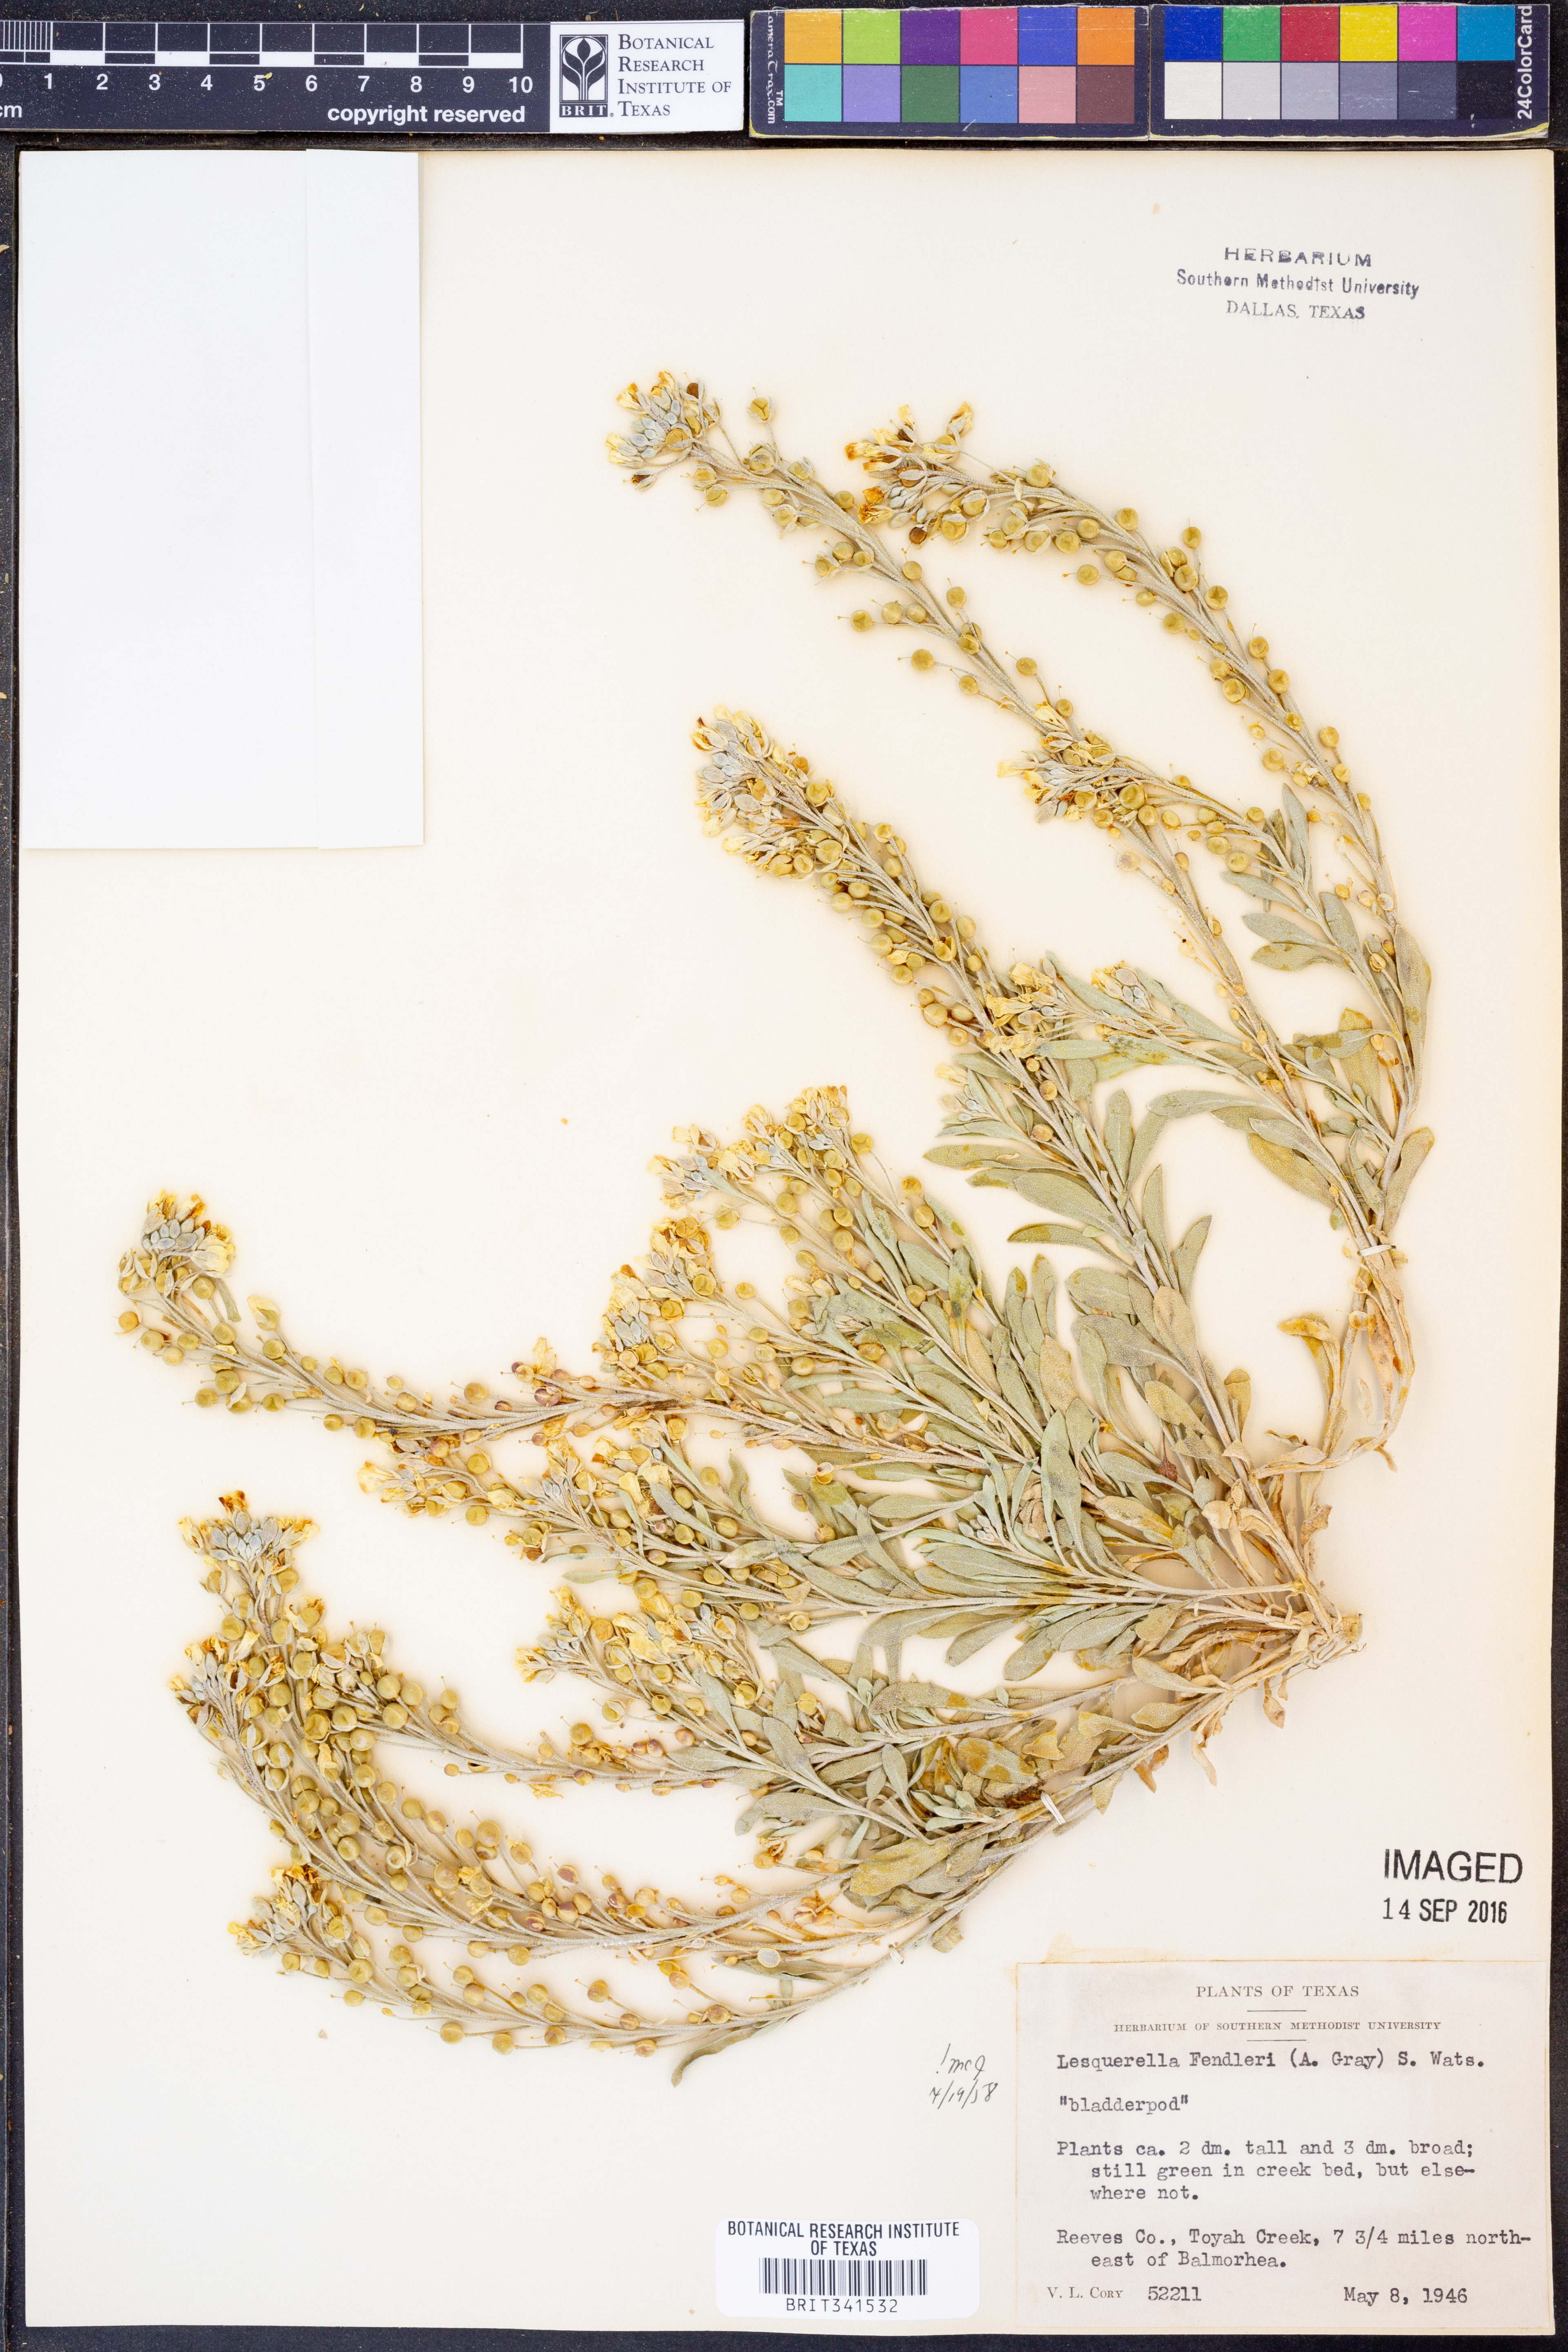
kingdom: Plantae
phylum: Tracheophyta
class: Magnoliopsida
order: Brassicales
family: Brassicaceae
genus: Physaria
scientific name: Physaria fendleri
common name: Fendler's bladderpod
